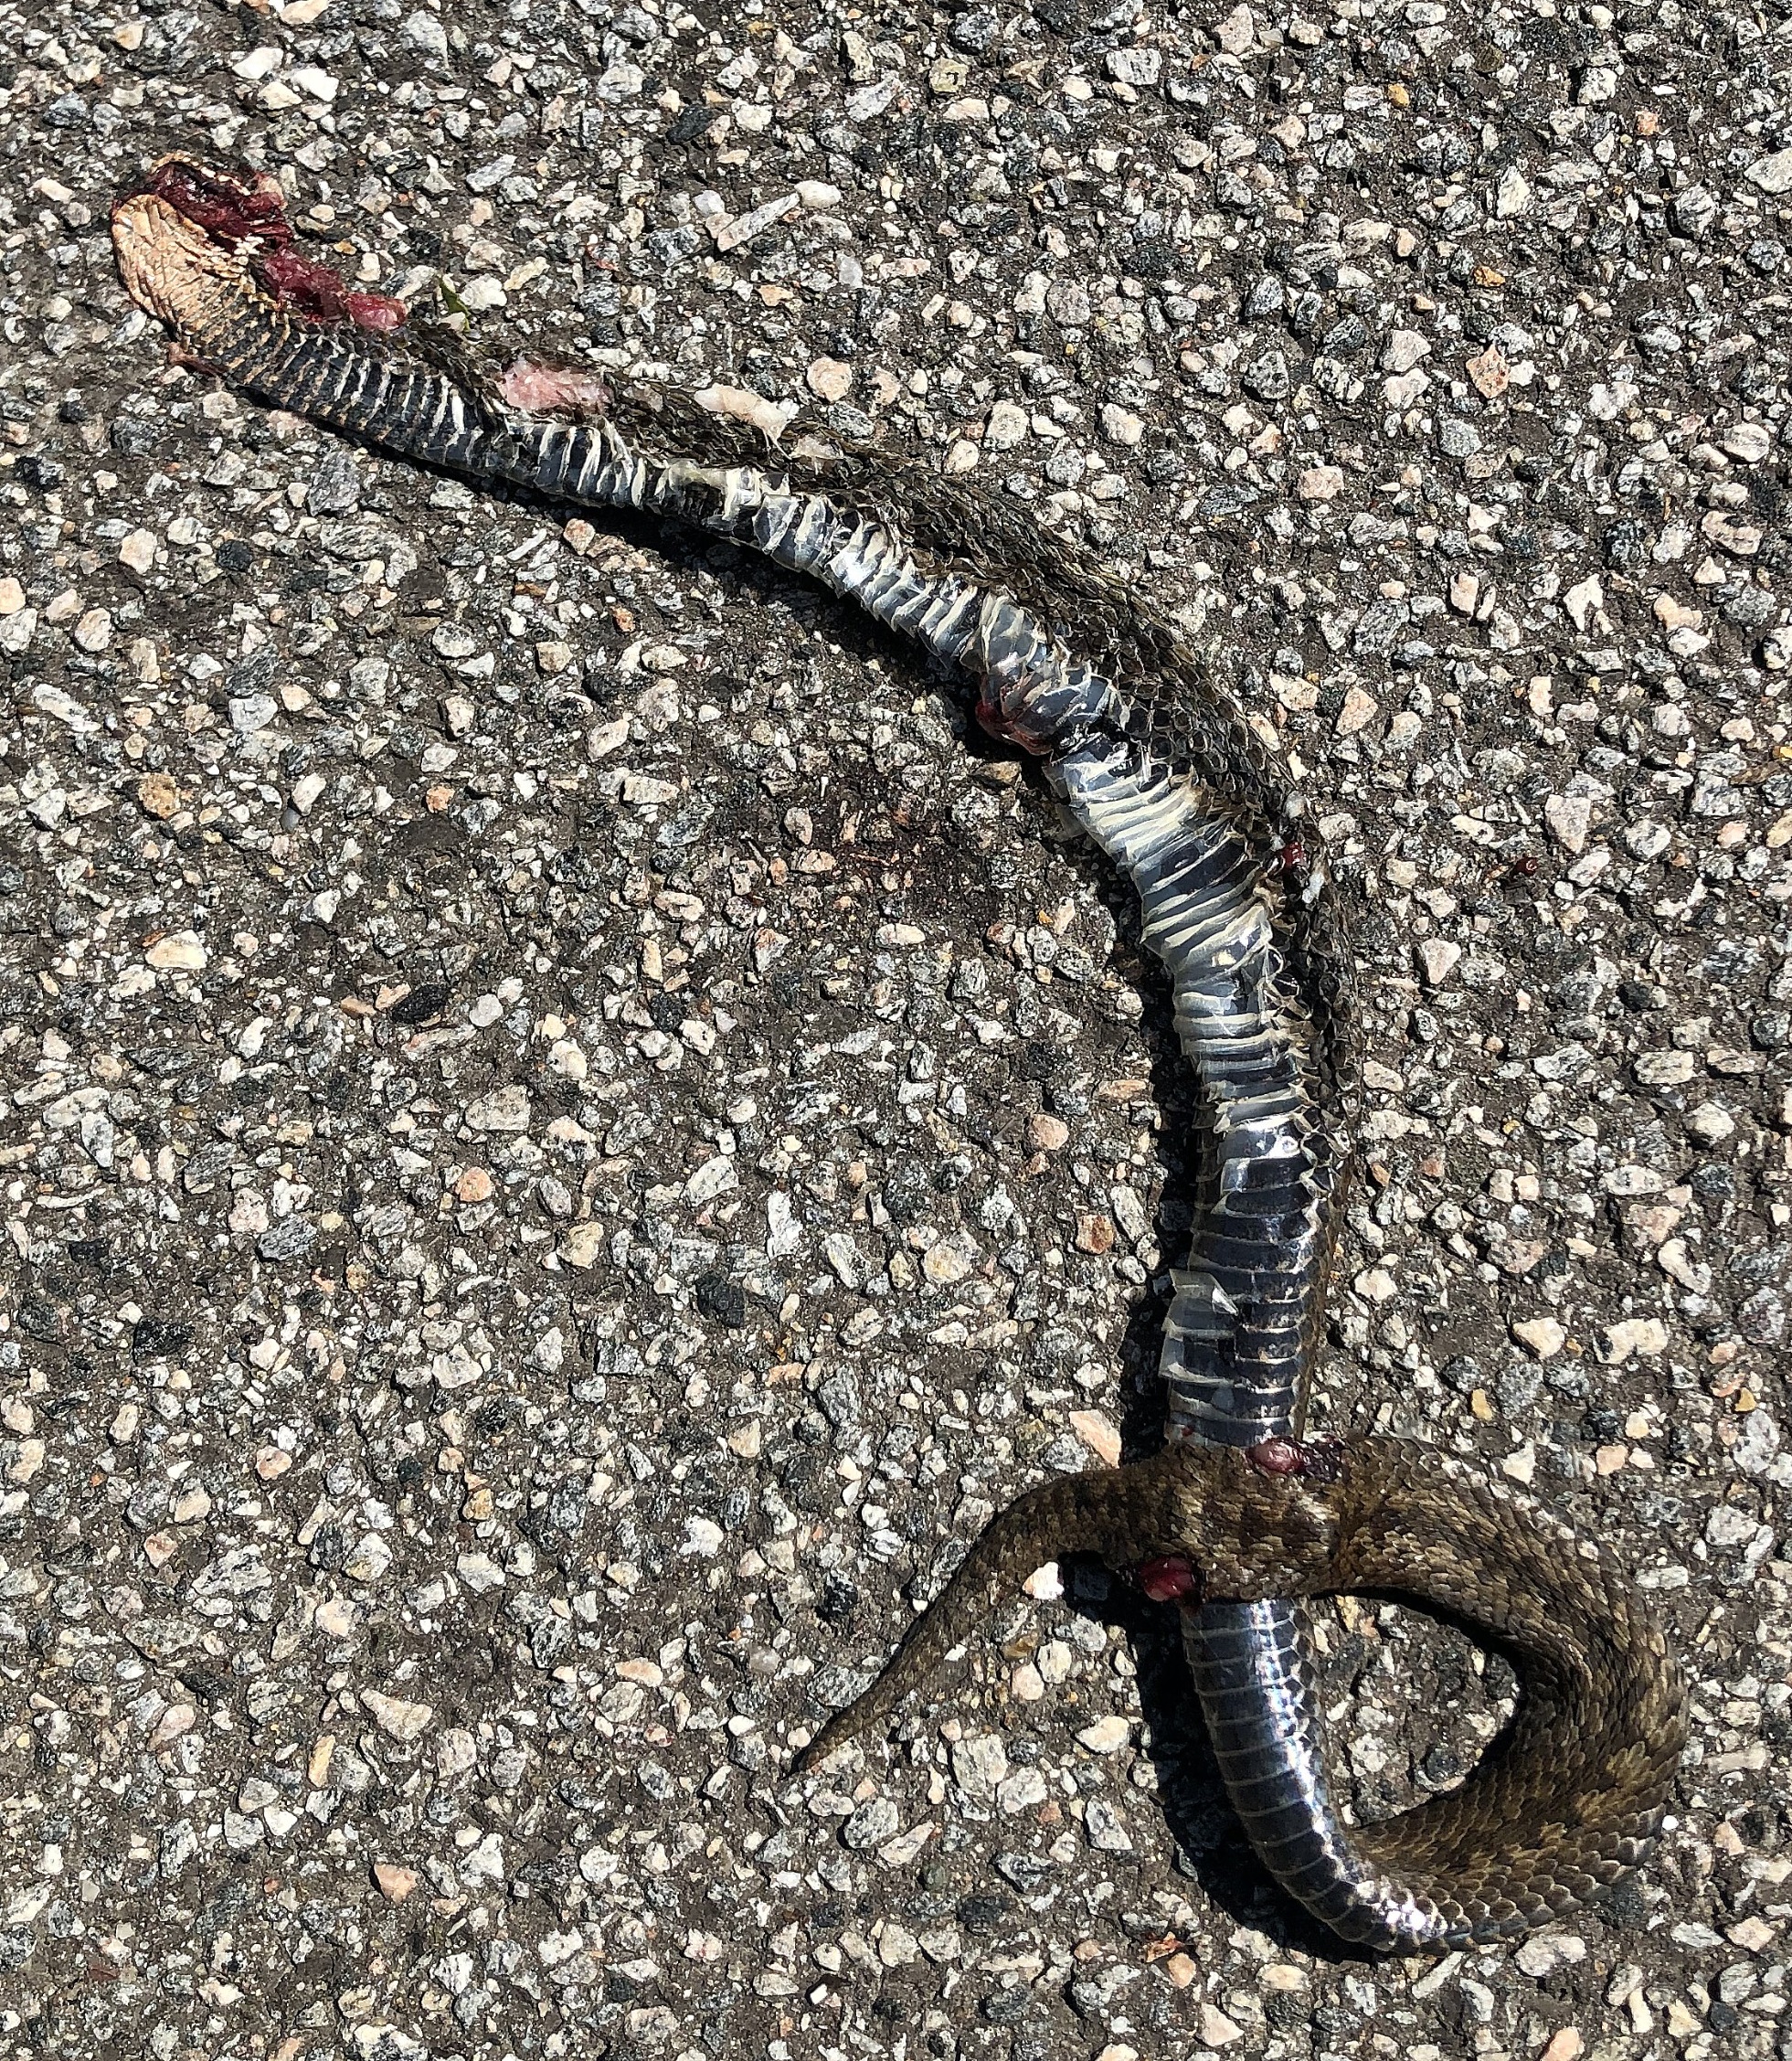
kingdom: Animalia
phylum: Chordata
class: Squamata
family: Viperidae
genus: Vipera
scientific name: Vipera berus
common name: Hugorm
